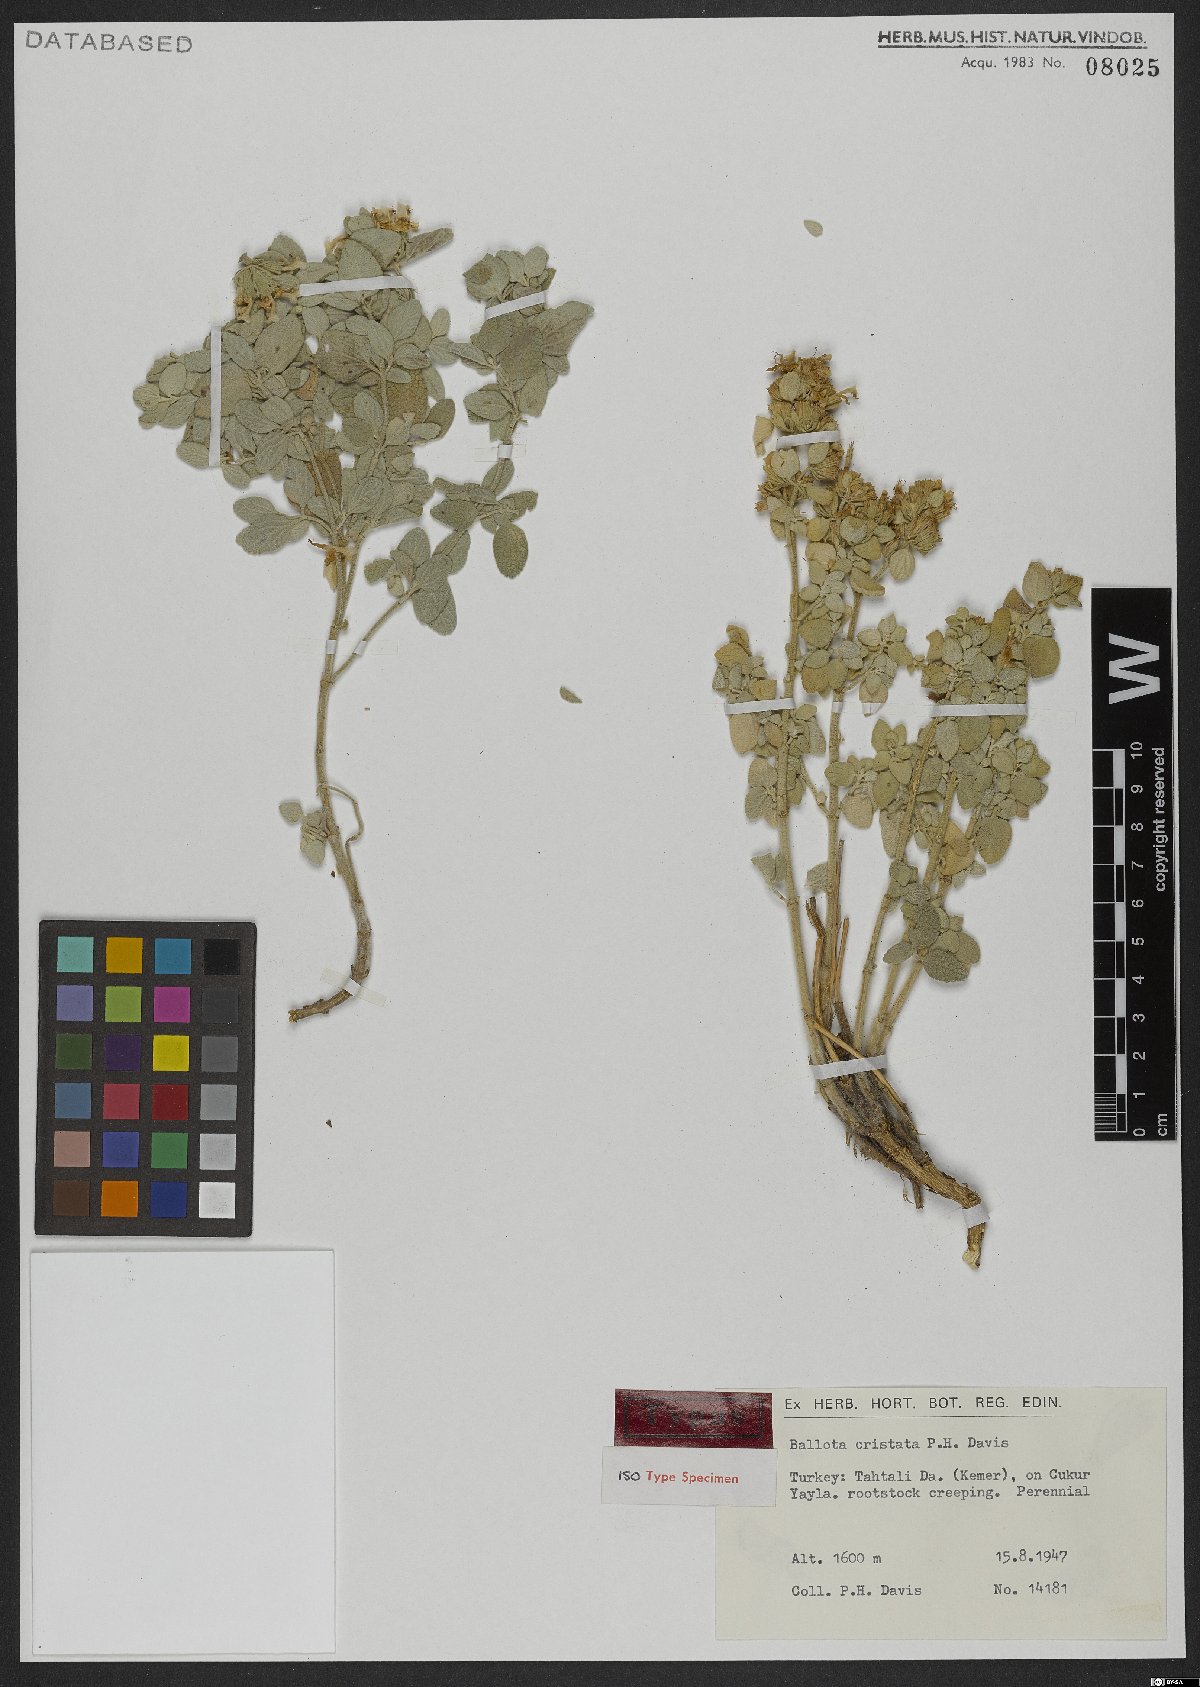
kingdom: Plantae
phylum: Tracheophyta
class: Magnoliopsida
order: Lamiales
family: Lamiaceae
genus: Ballota
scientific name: Ballota cristata
